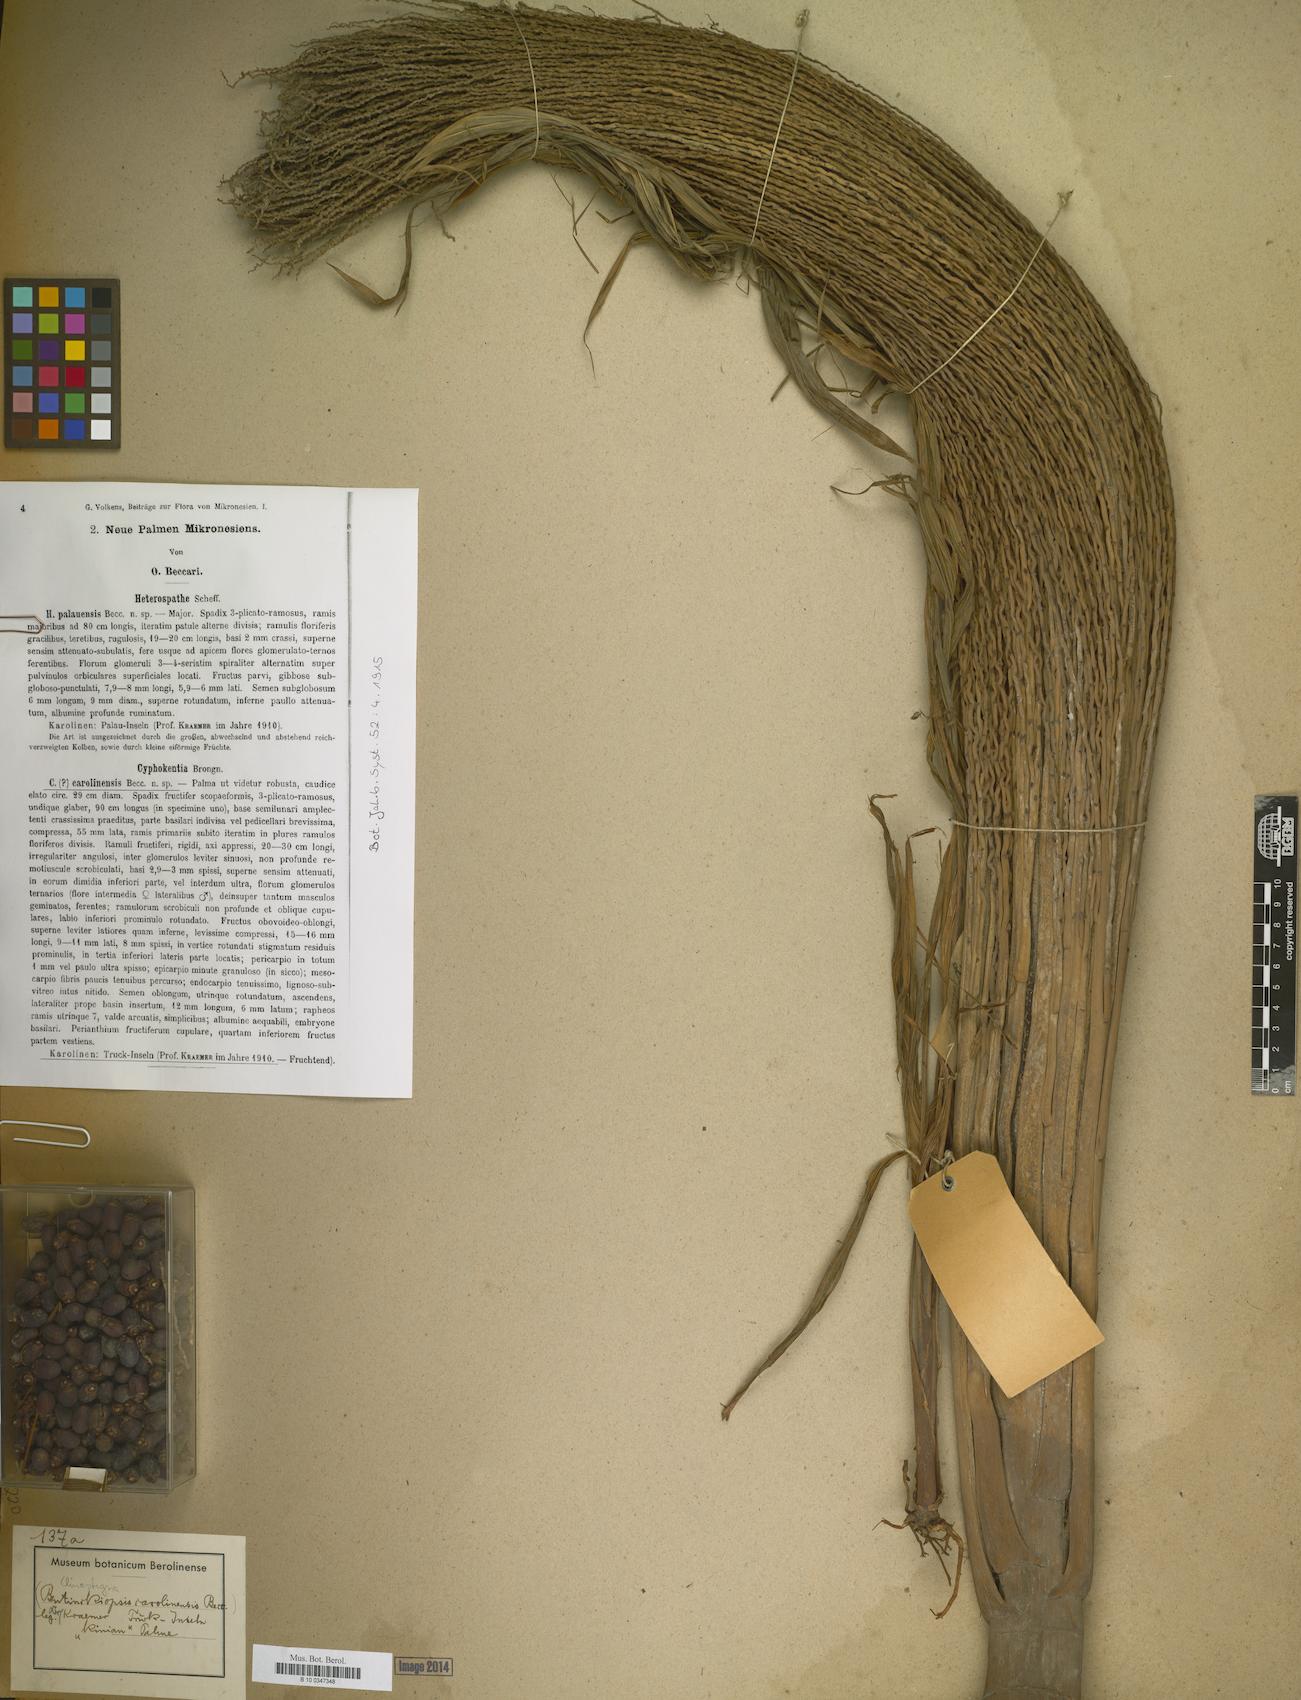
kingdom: Plantae
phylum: Tracheophyta
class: Liliopsida
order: Arecales
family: Arecaceae
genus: Clinostigma
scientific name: Clinostigma
